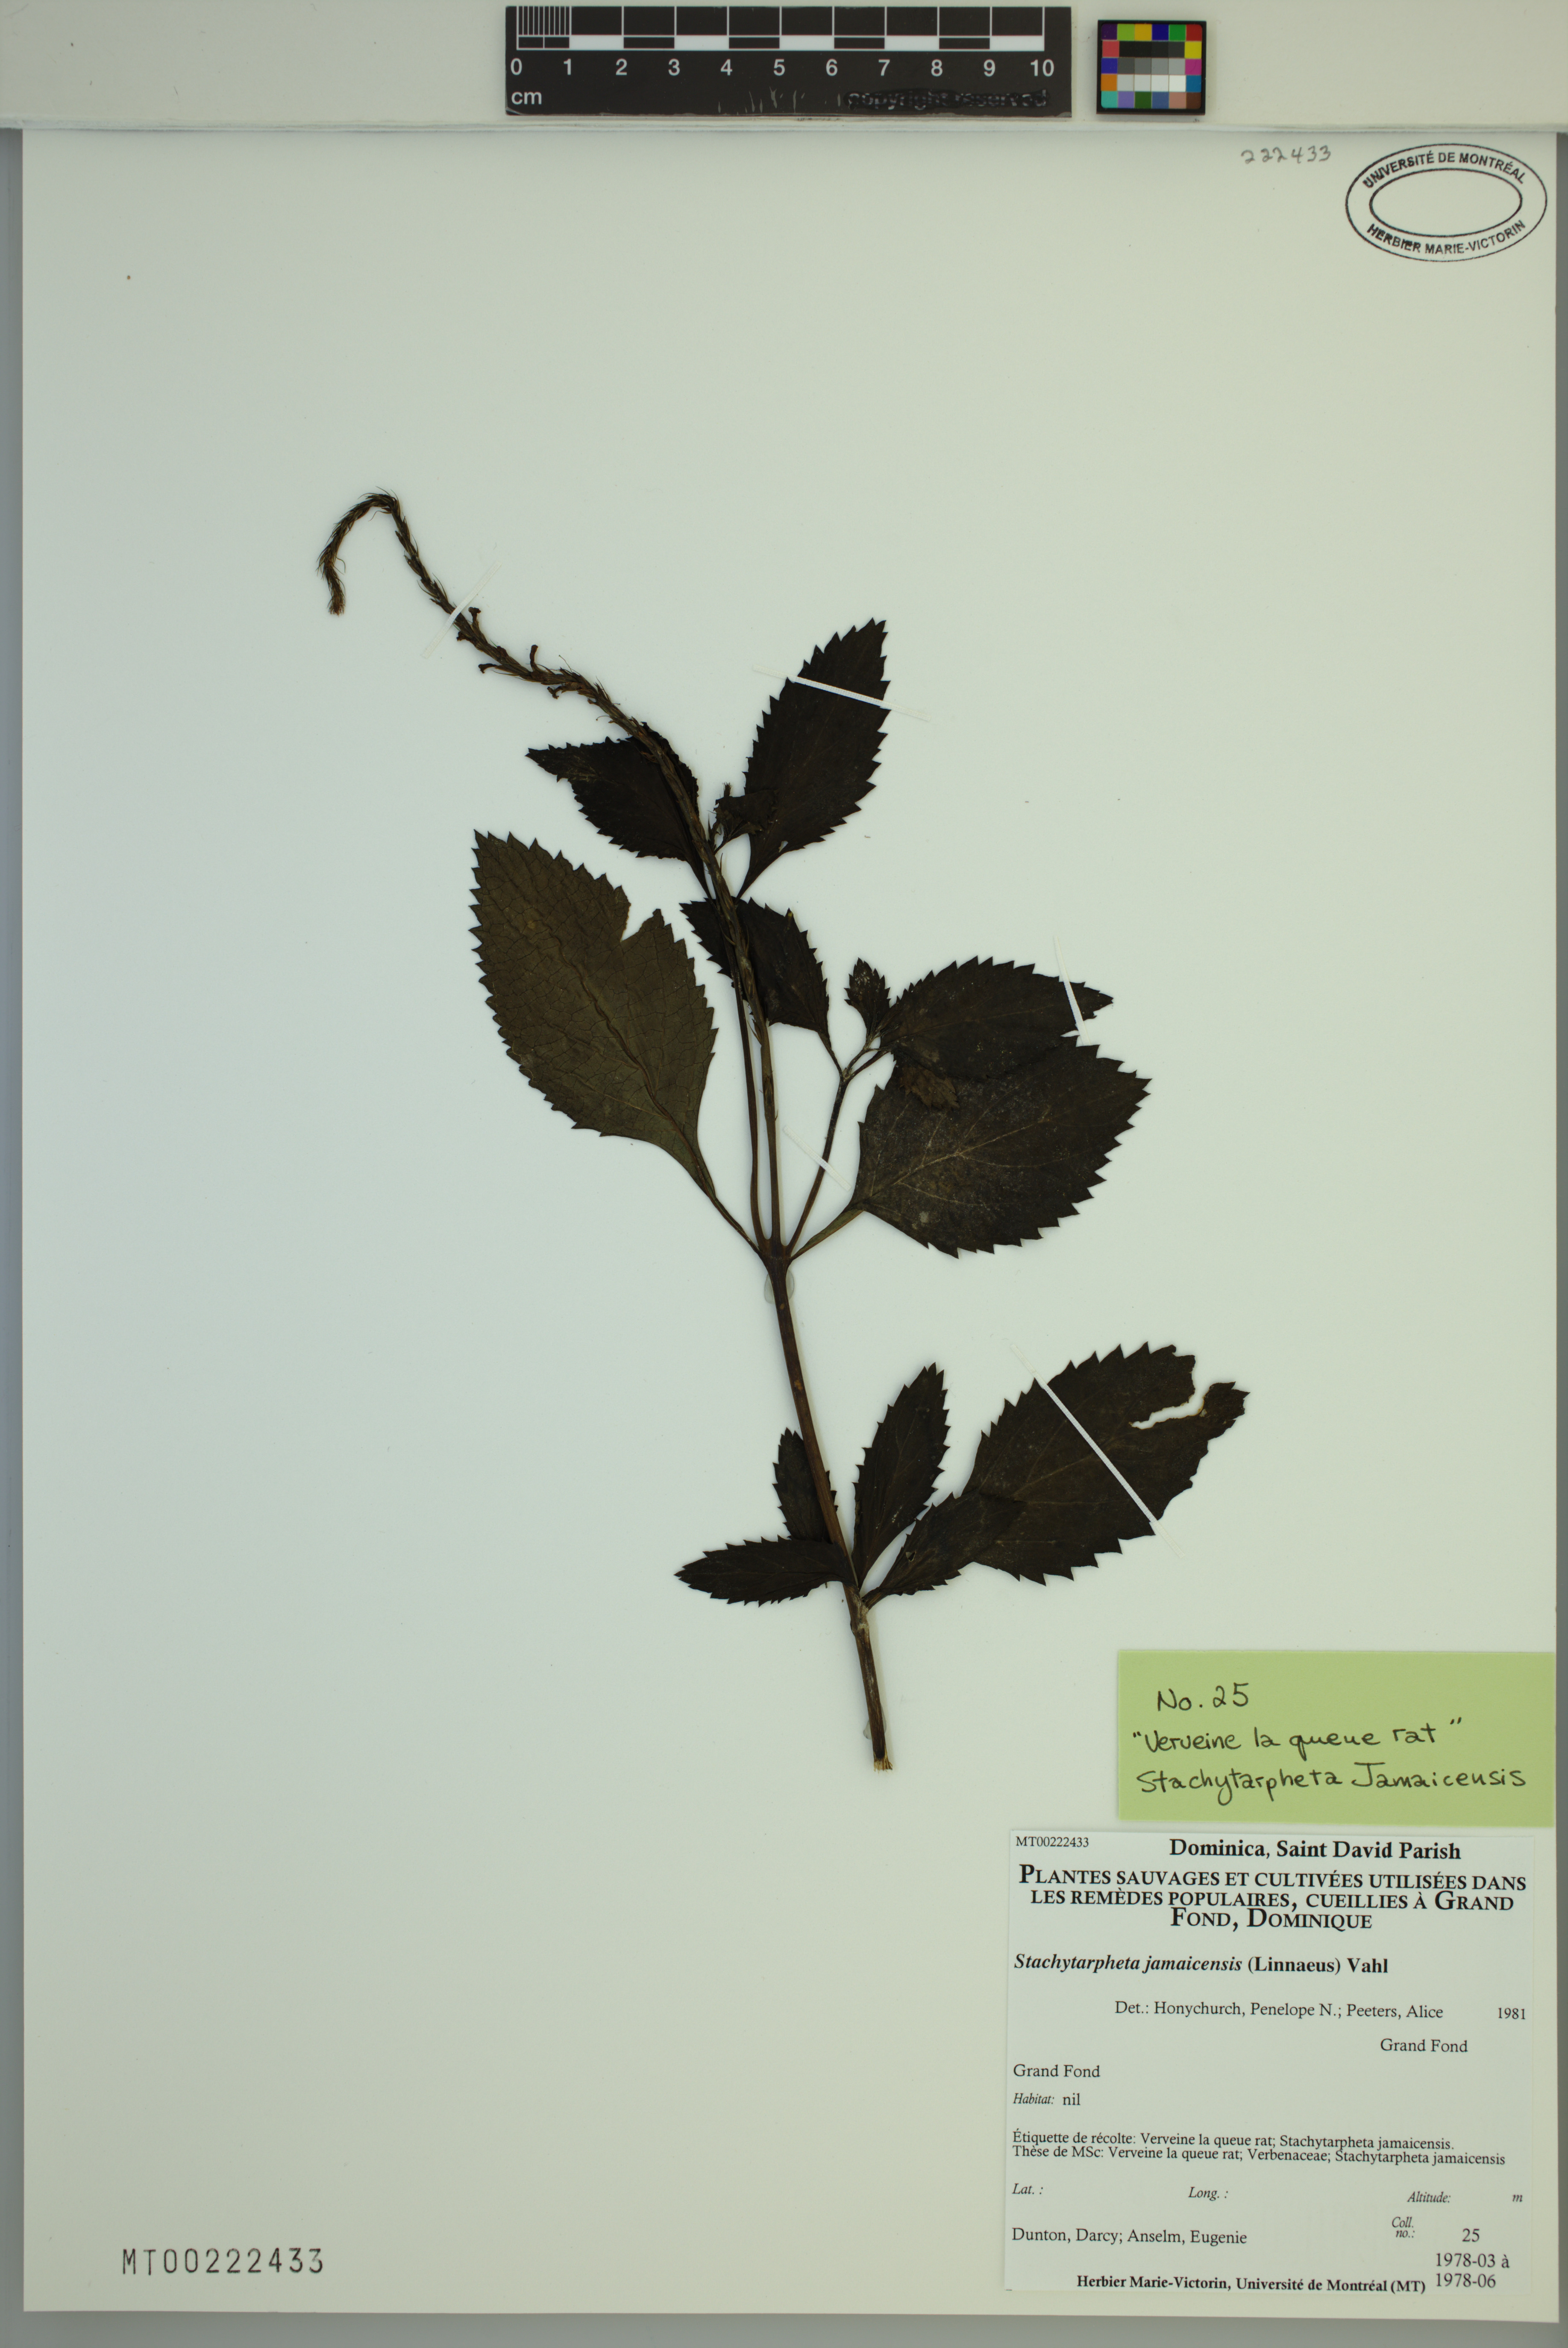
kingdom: Plantae
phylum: Tracheophyta
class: Magnoliopsida
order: Lamiales
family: Verbenaceae
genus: Stachytarpheta
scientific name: Stachytarpheta jamaicensis
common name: Light-blue snakeweed
